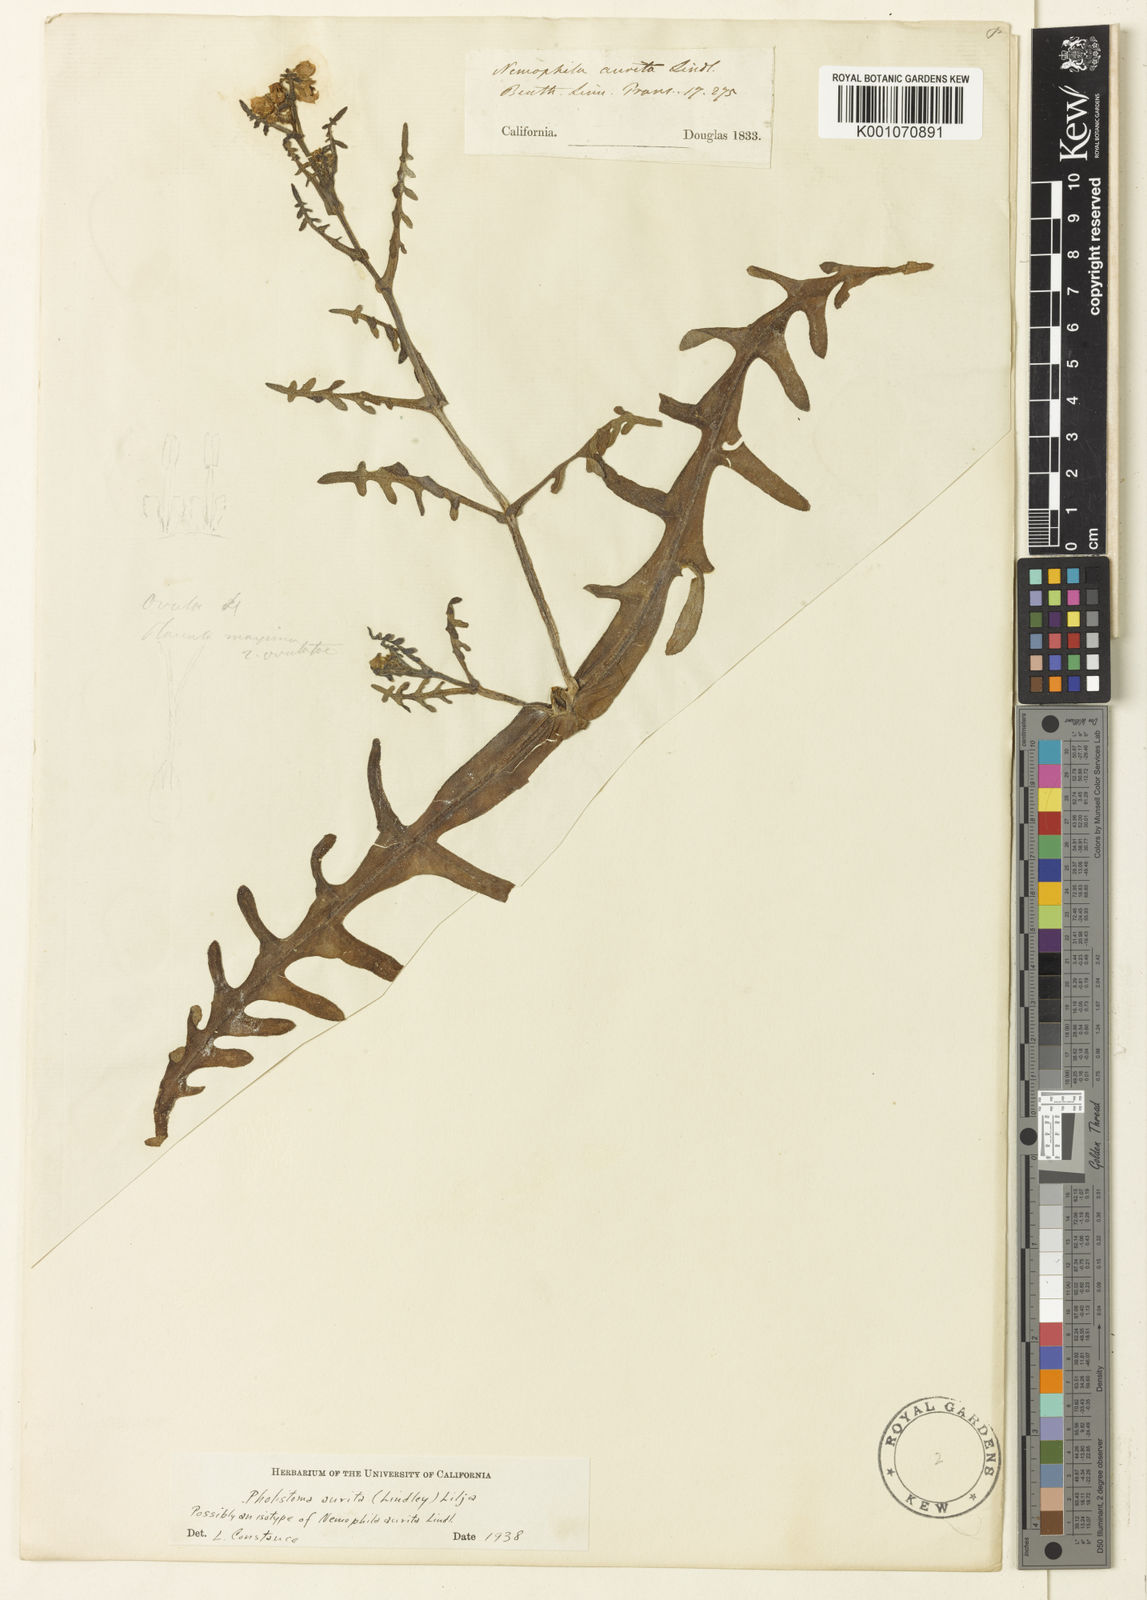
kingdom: Plantae
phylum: Tracheophyta
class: Magnoliopsida
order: Boraginales
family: Hydrophyllaceae
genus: Pholistoma
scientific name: Pholistoma auritum
